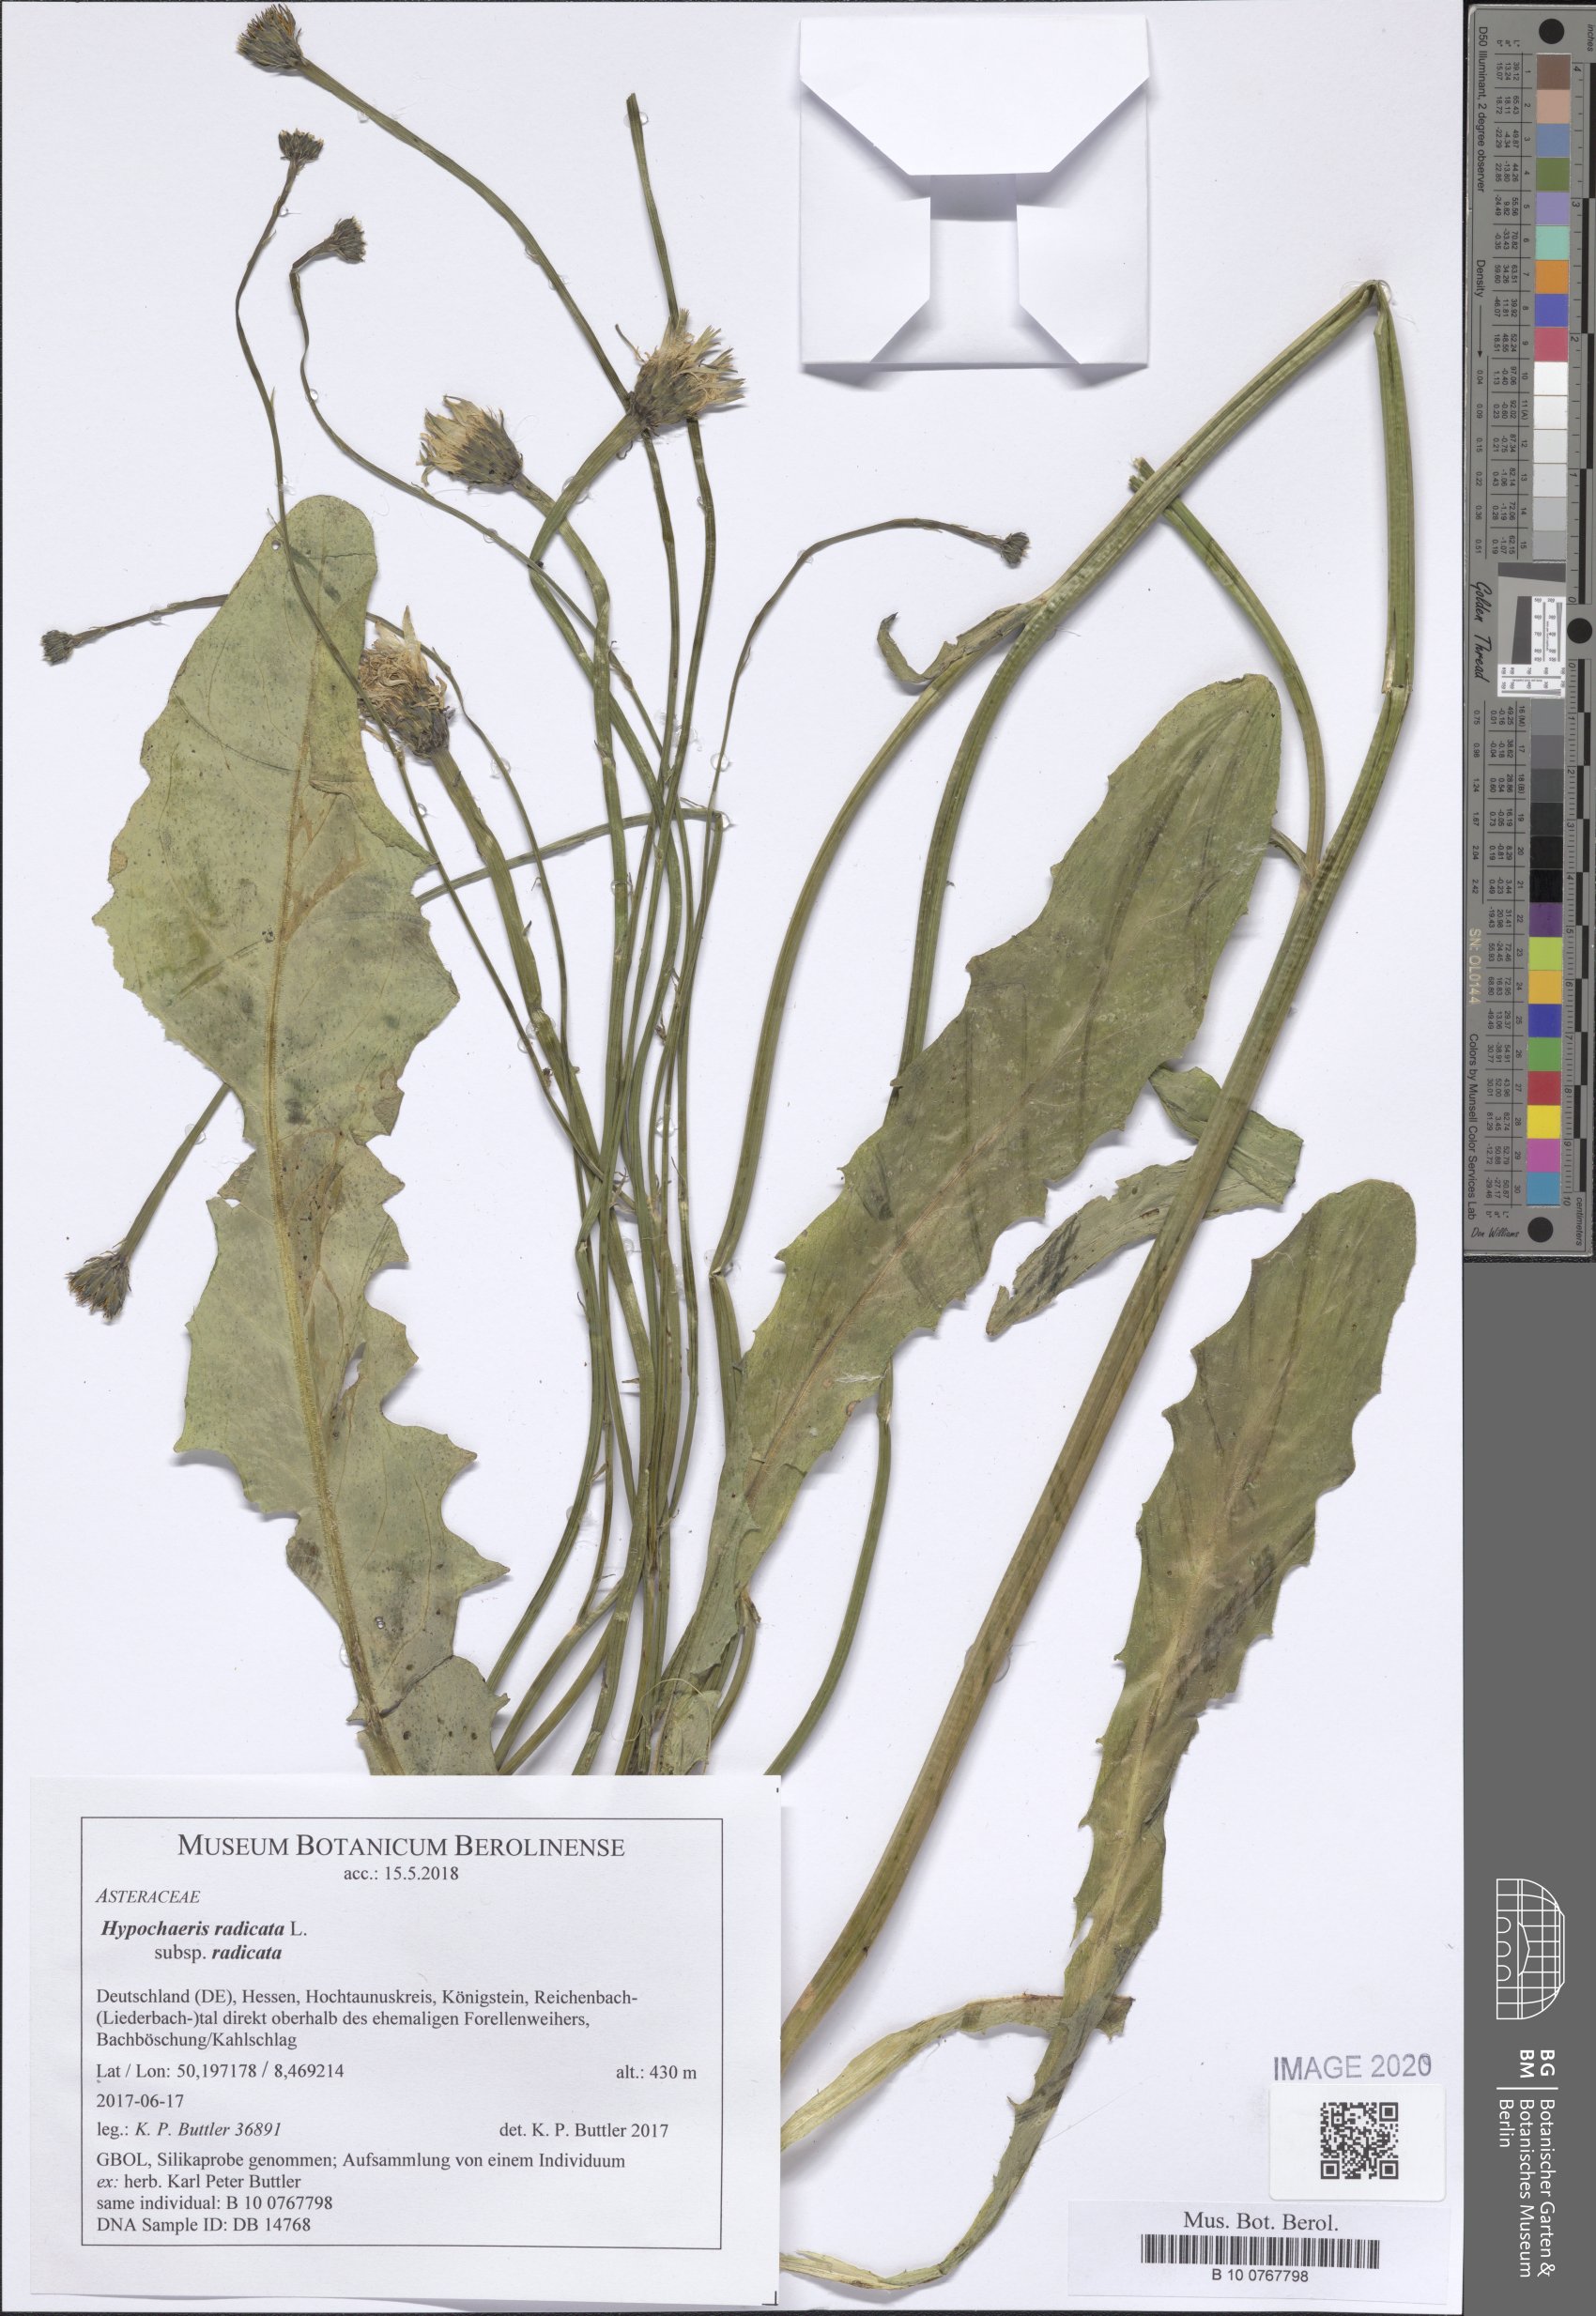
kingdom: Plantae
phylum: Tracheophyta
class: Magnoliopsida
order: Asterales
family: Asteraceae
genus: Hypochaeris
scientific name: Hypochaeris radicata
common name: Flatweed
